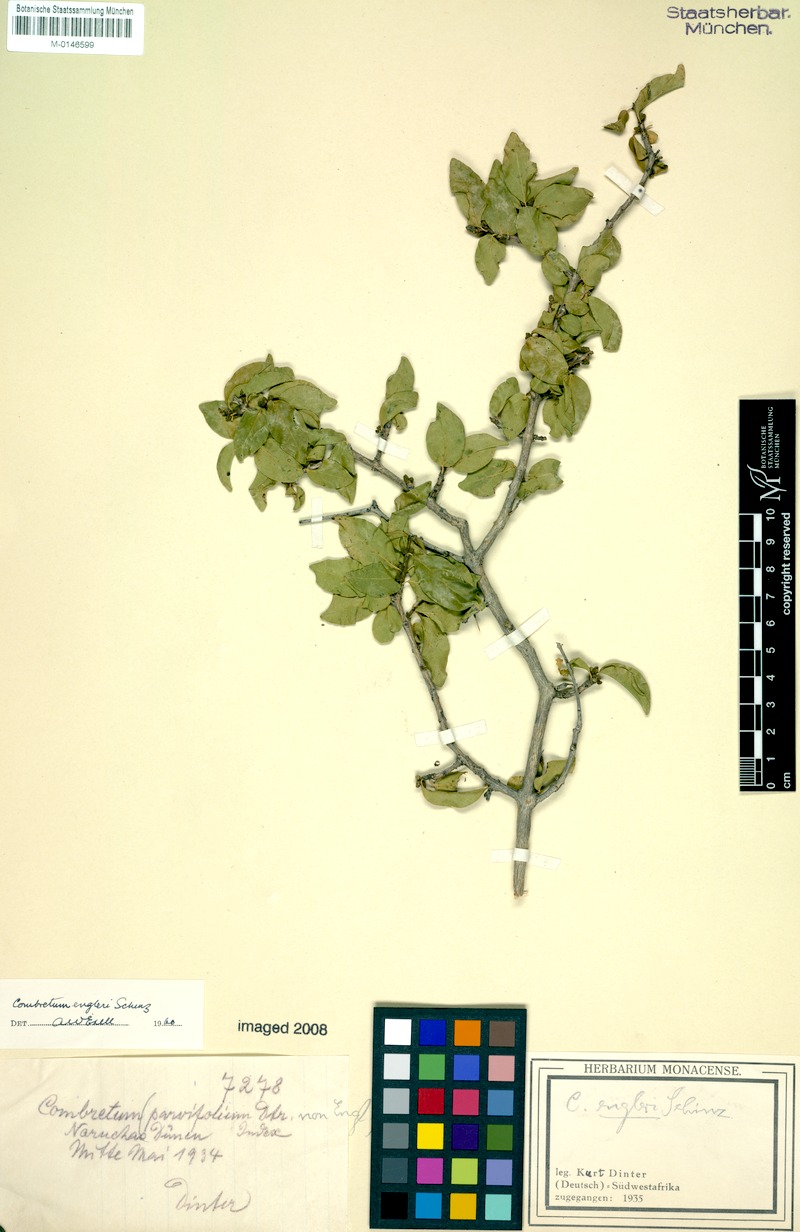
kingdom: Plantae
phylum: Tracheophyta
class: Magnoliopsida
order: Myrtales
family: Combretaceae
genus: Combretum
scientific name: Combretum engleri
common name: Sand bushwillow
